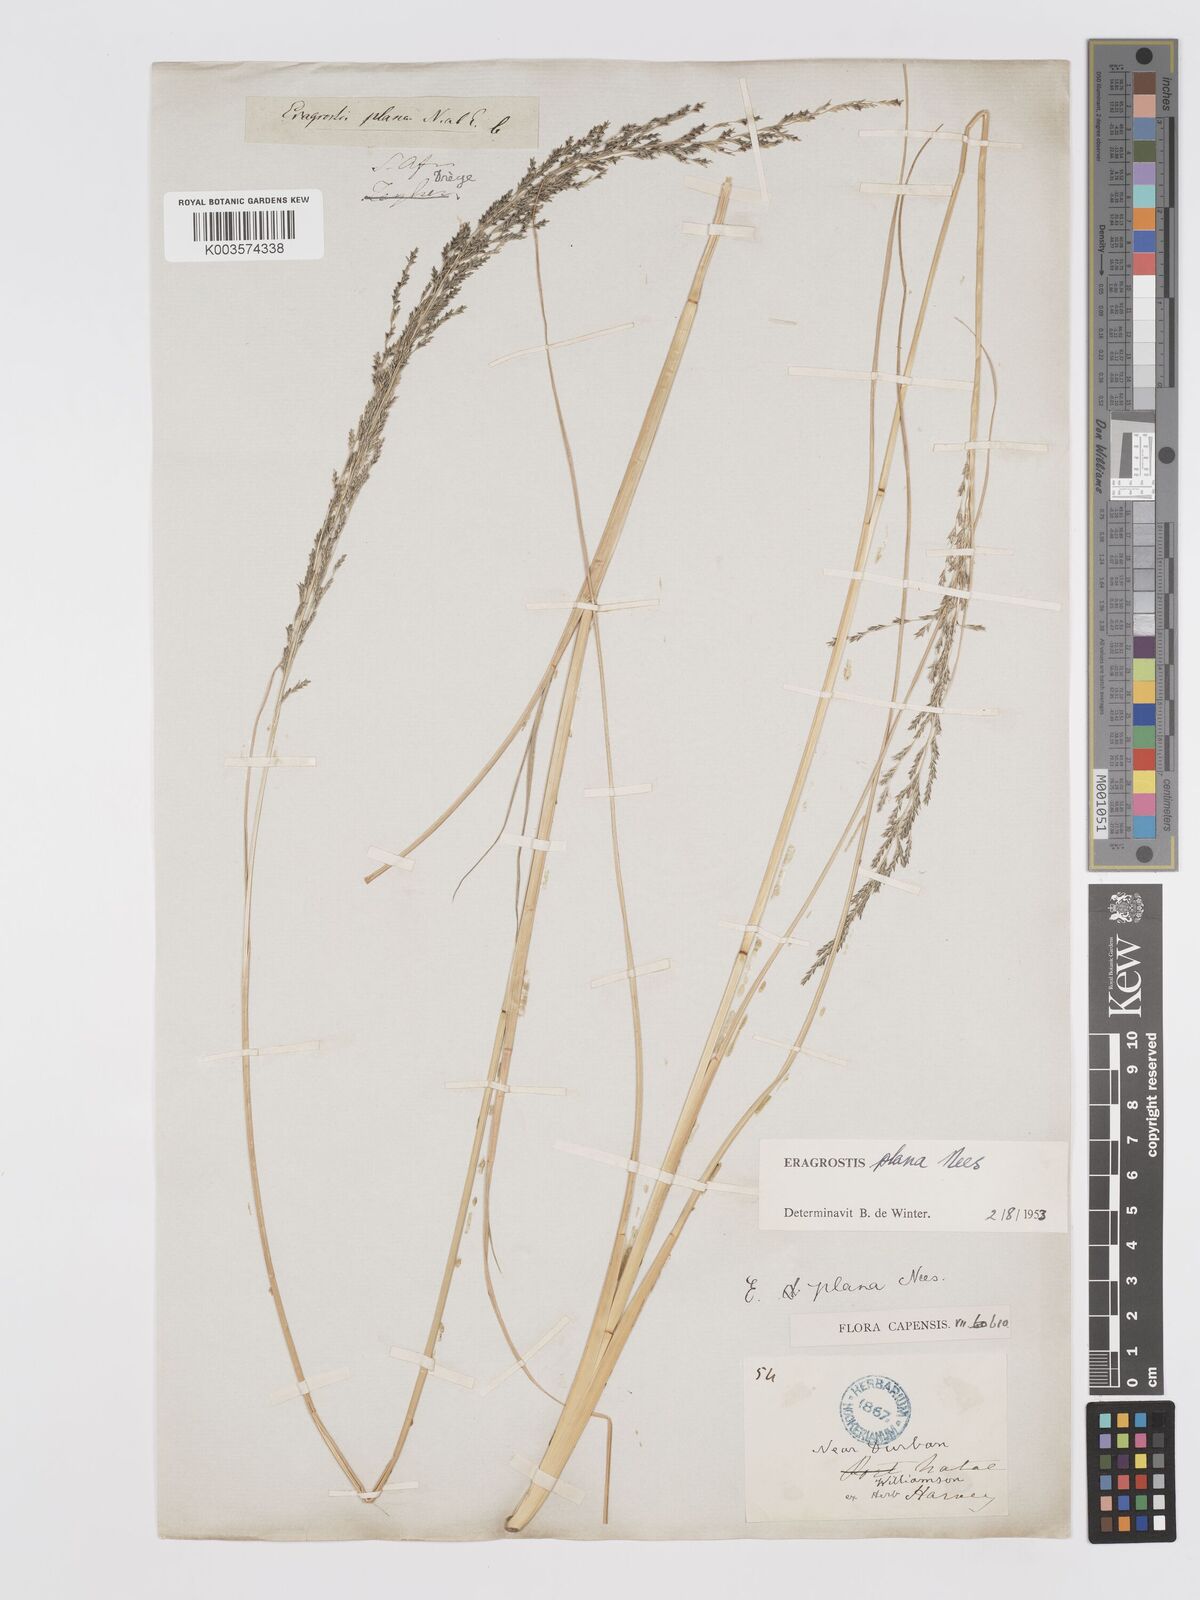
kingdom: Plantae
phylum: Tracheophyta
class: Liliopsida
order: Poales
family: Poaceae
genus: Eragrostis
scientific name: Eragrostis plana
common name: South african lovegrass
